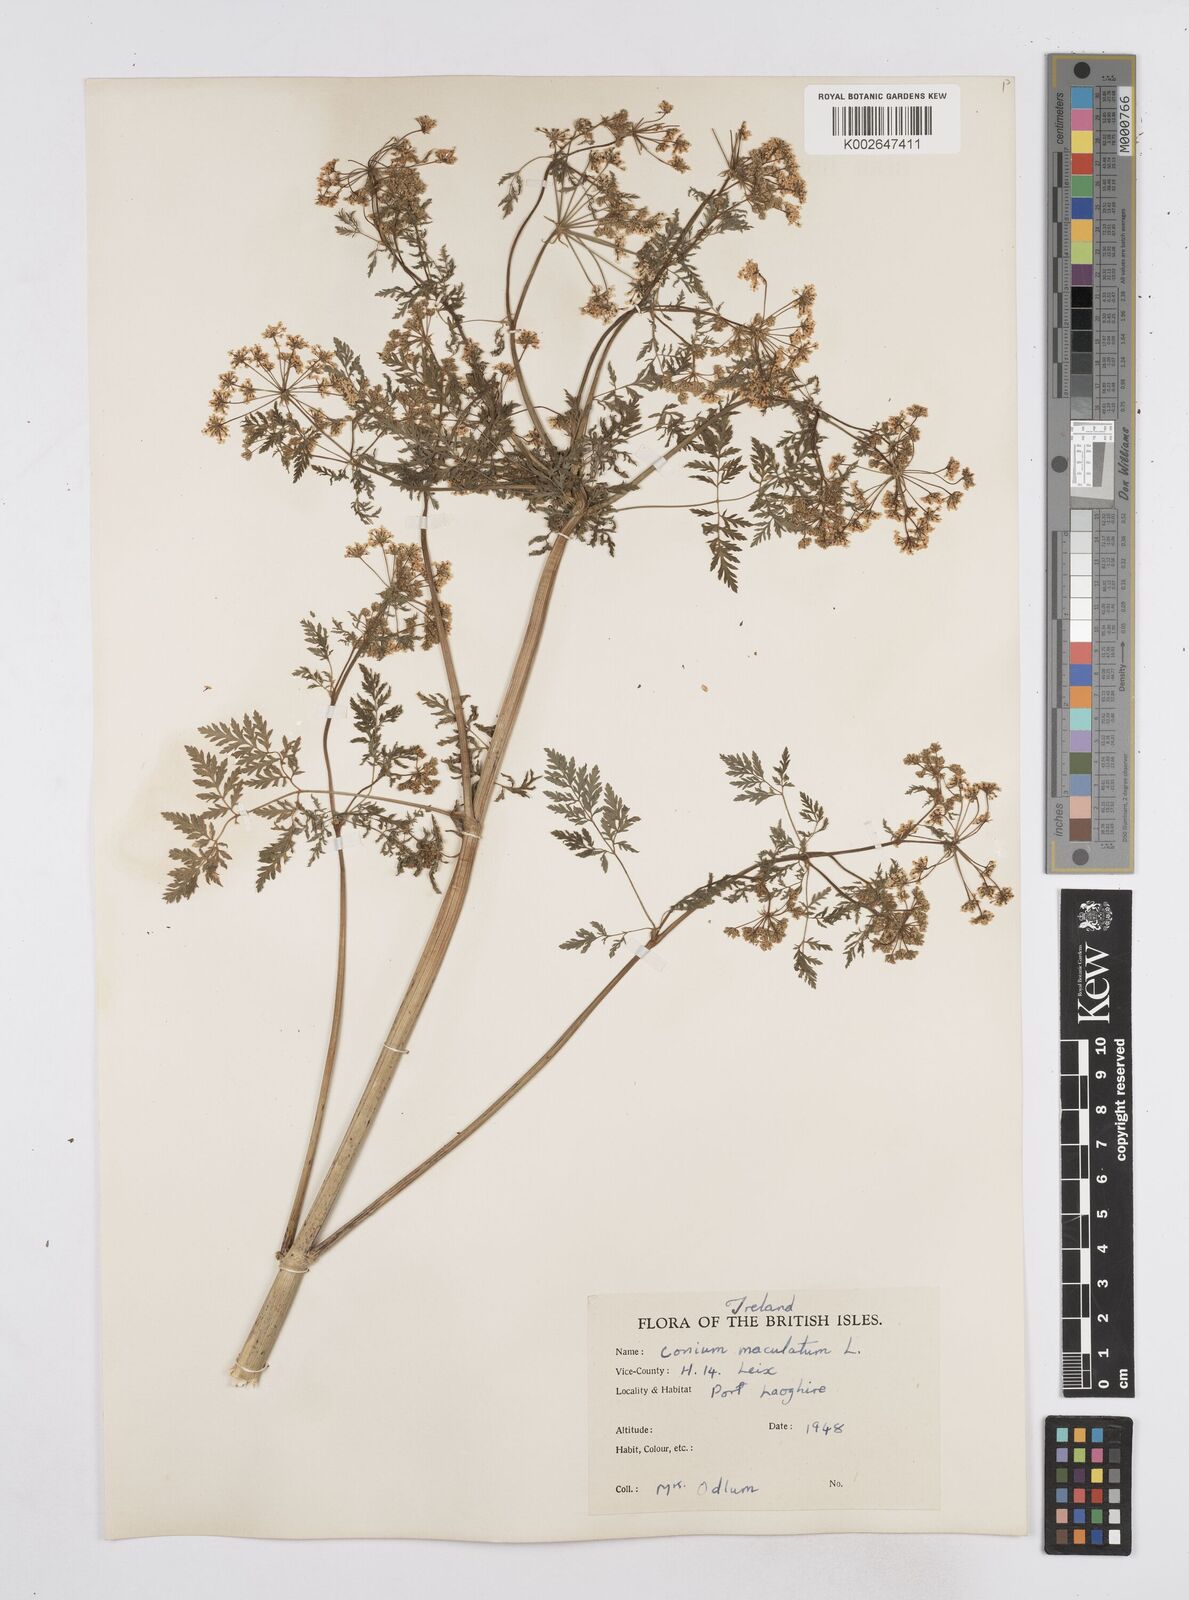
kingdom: Plantae
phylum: Tracheophyta
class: Magnoliopsida
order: Apiales
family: Apiaceae
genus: Conium
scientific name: Conium maculatum
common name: Hemlock
